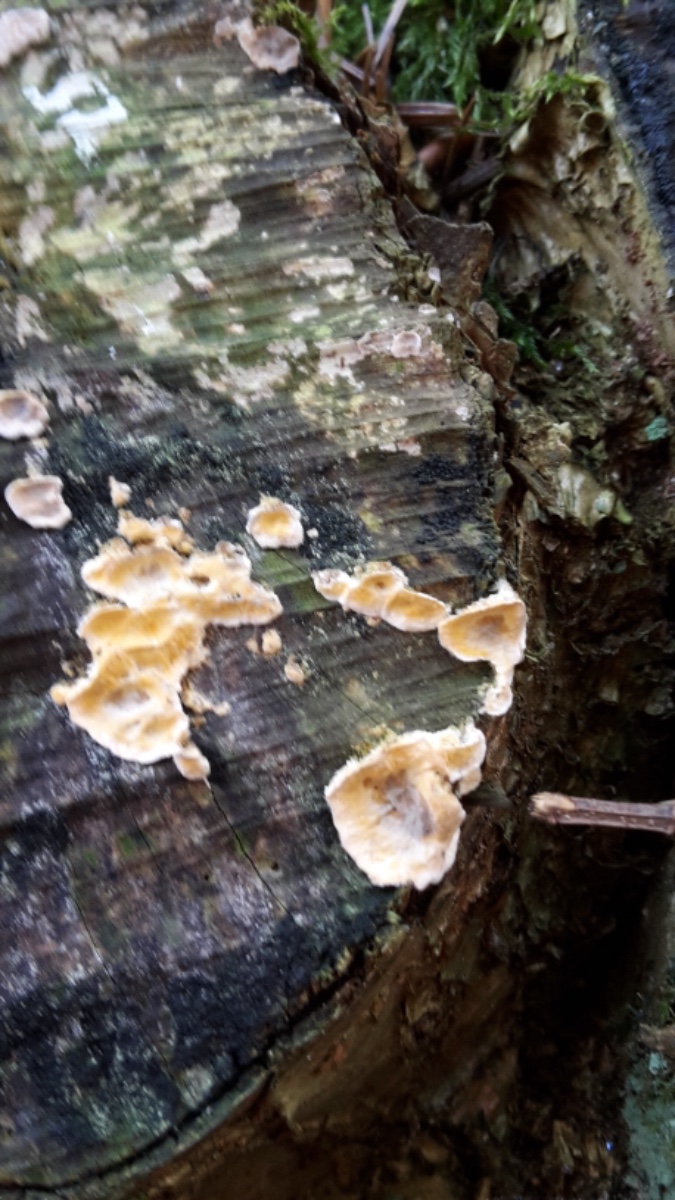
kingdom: Fungi
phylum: Basidiomycota
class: Agaricomycetes
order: Russulales
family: Stereaceae
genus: Stereum
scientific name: Stereum hirsutum
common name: håret lædersvamp
